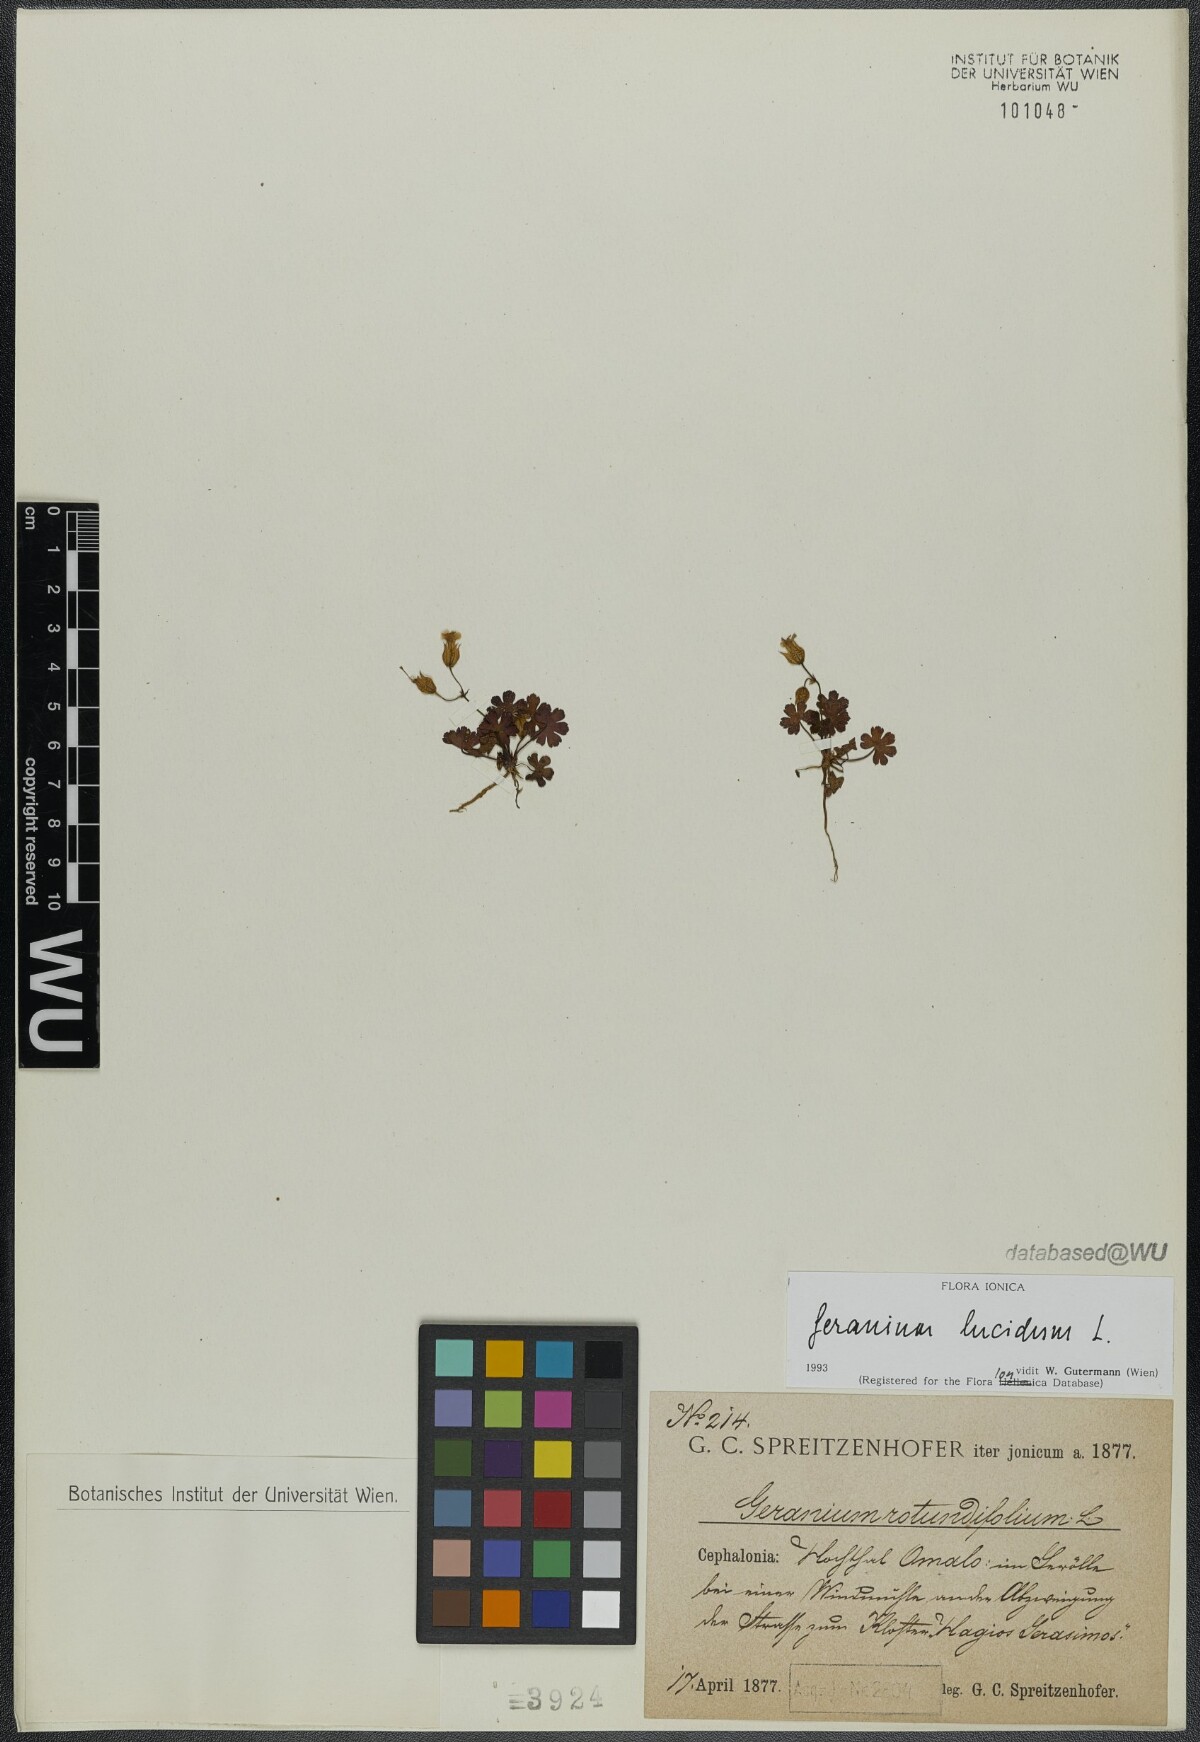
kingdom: Plantae
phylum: Tracheophyta
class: Magnoliopsida
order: Geraniales
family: Geraniaceae
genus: Geranium
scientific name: Geranium lucidum
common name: Shining crane's-bill
